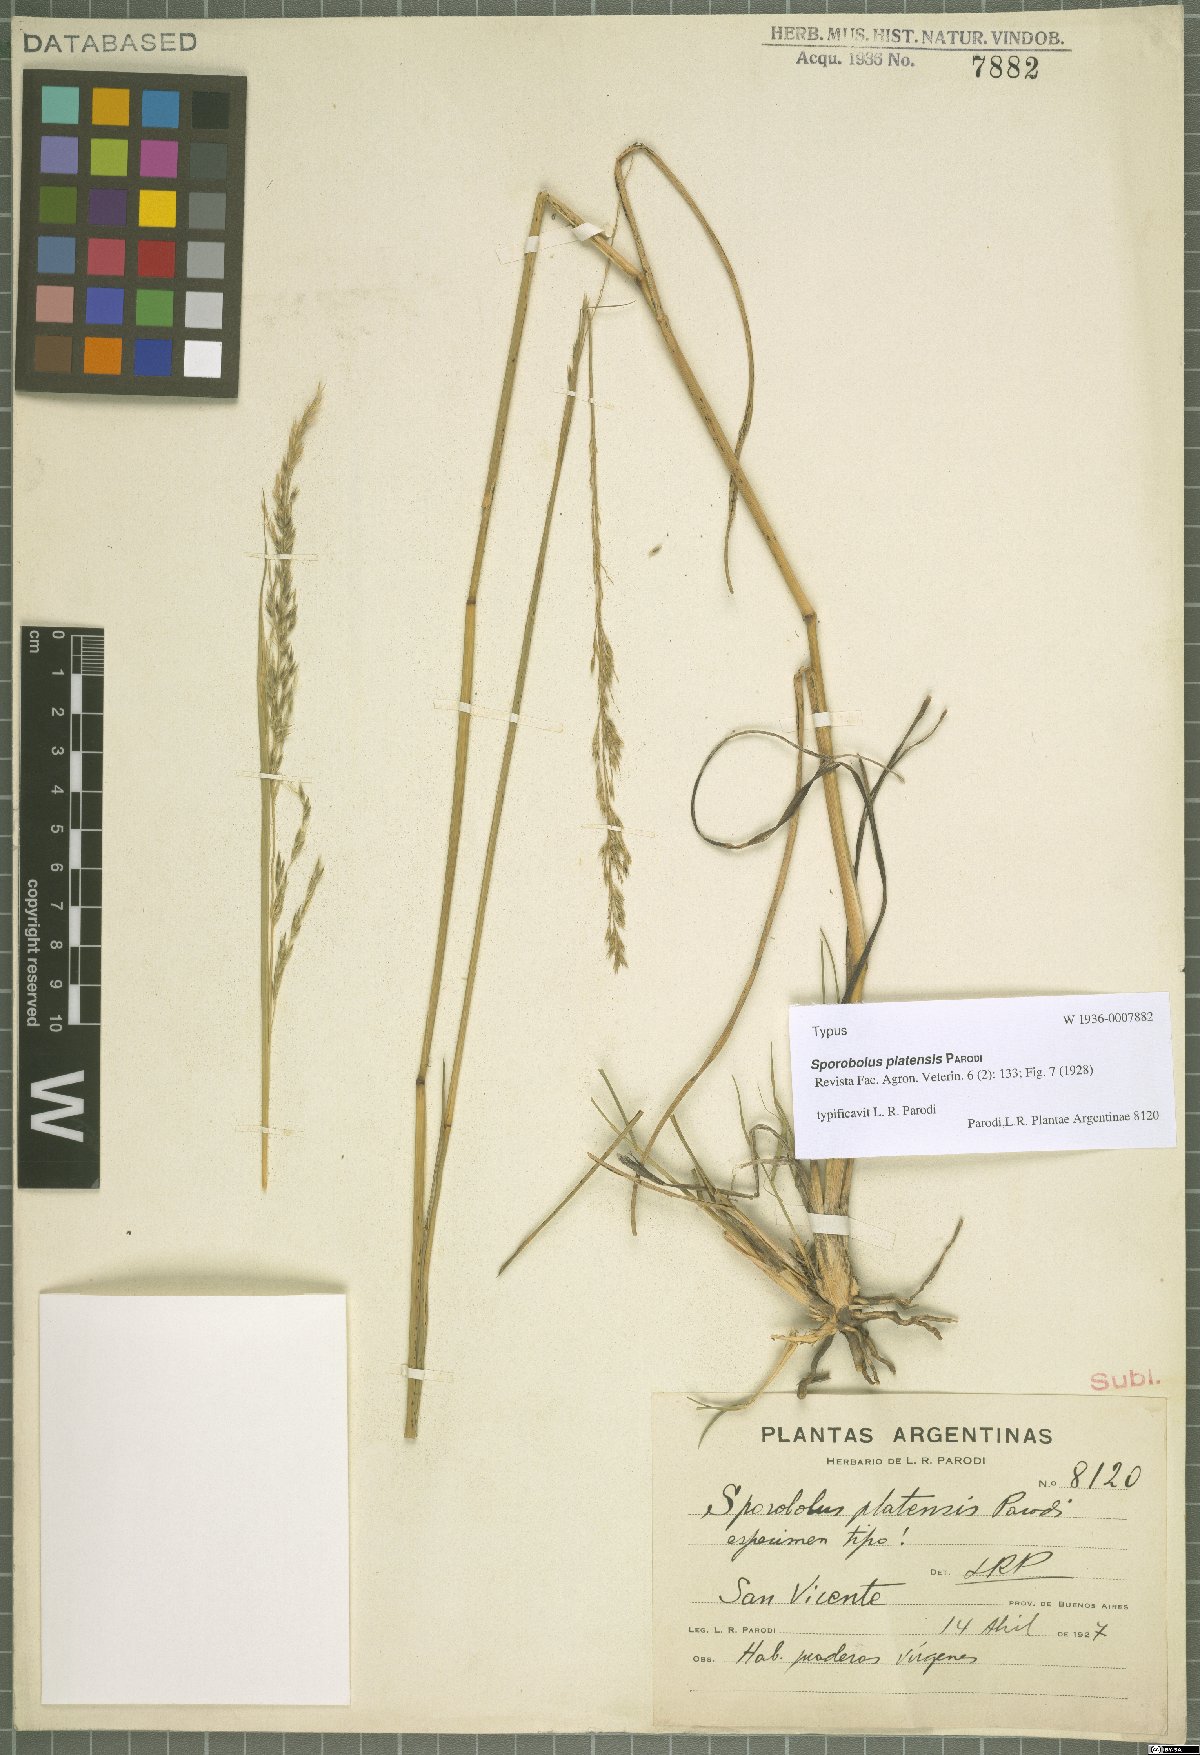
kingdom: Plantae
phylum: Tracheophyta
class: Liliopsida
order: Poales
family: Poaceae
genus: Sporobolus
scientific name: Sporobolus platensis
